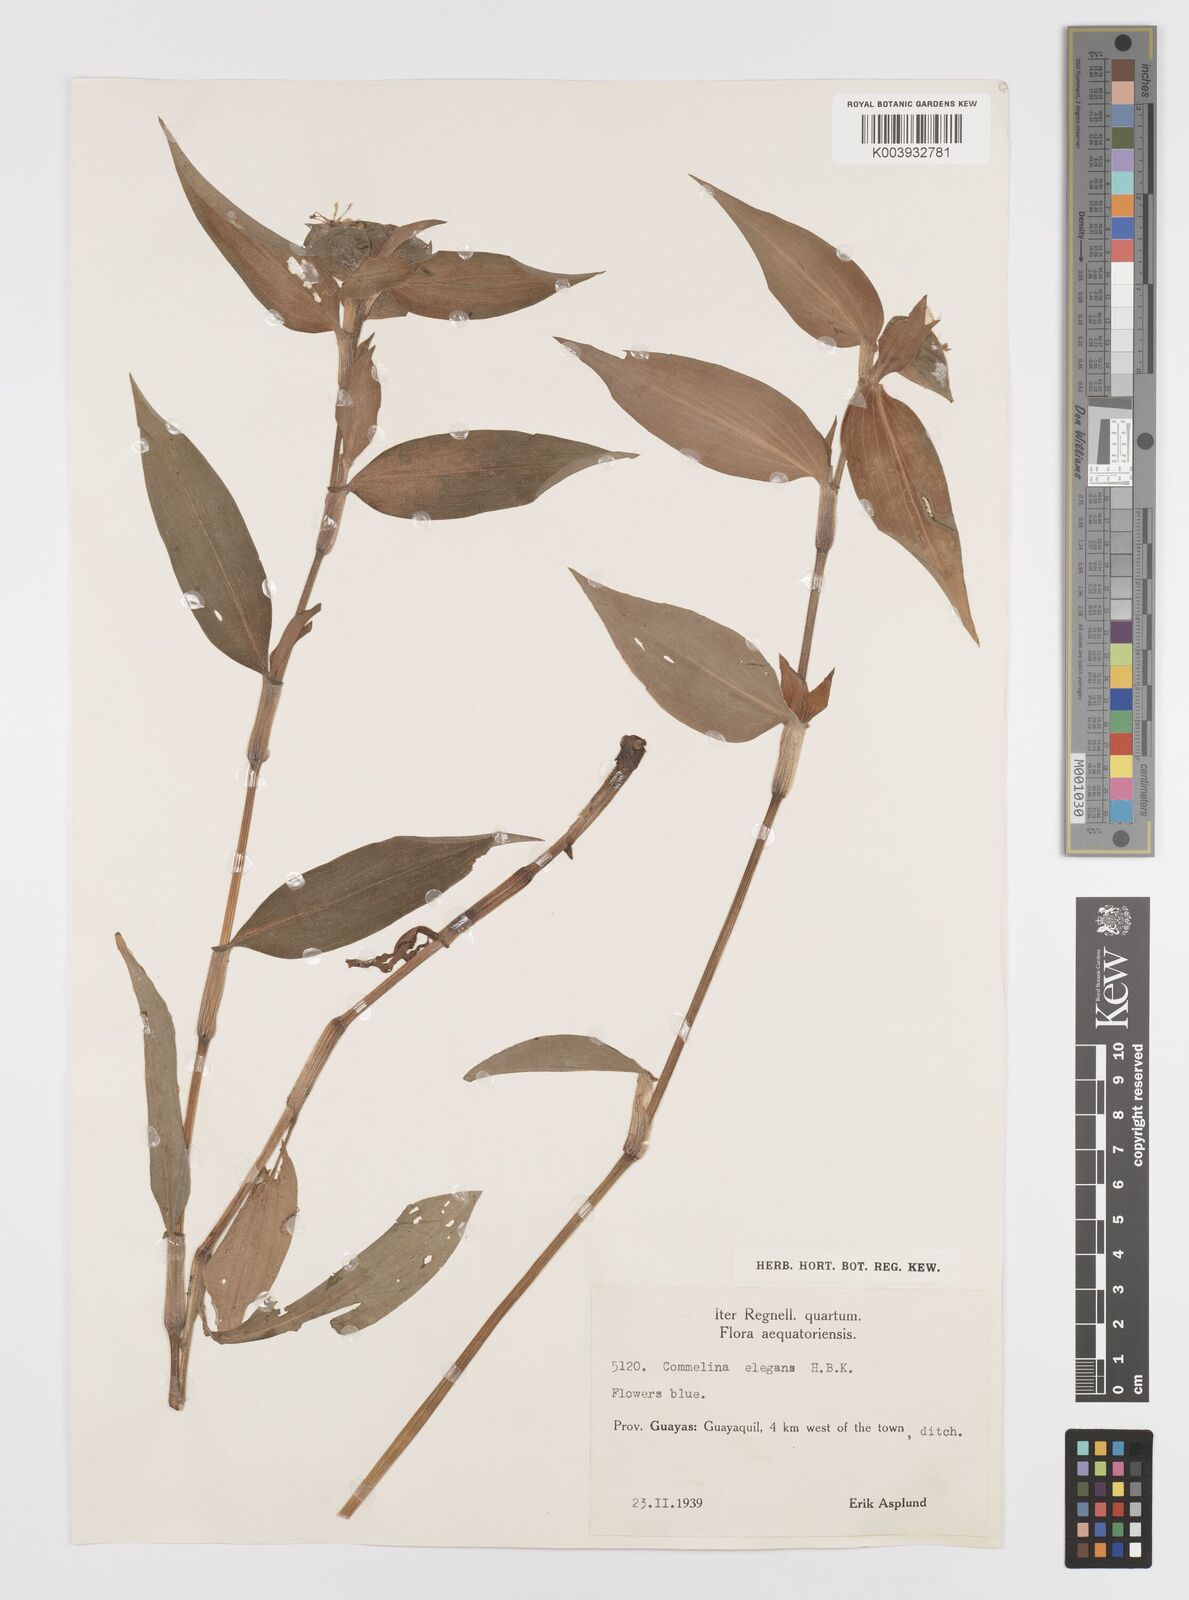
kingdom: Plantae
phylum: Tracheophyta
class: Liliopsida
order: Commelinales
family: Commelinaceae
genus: Commelina
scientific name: Commelina virginica
